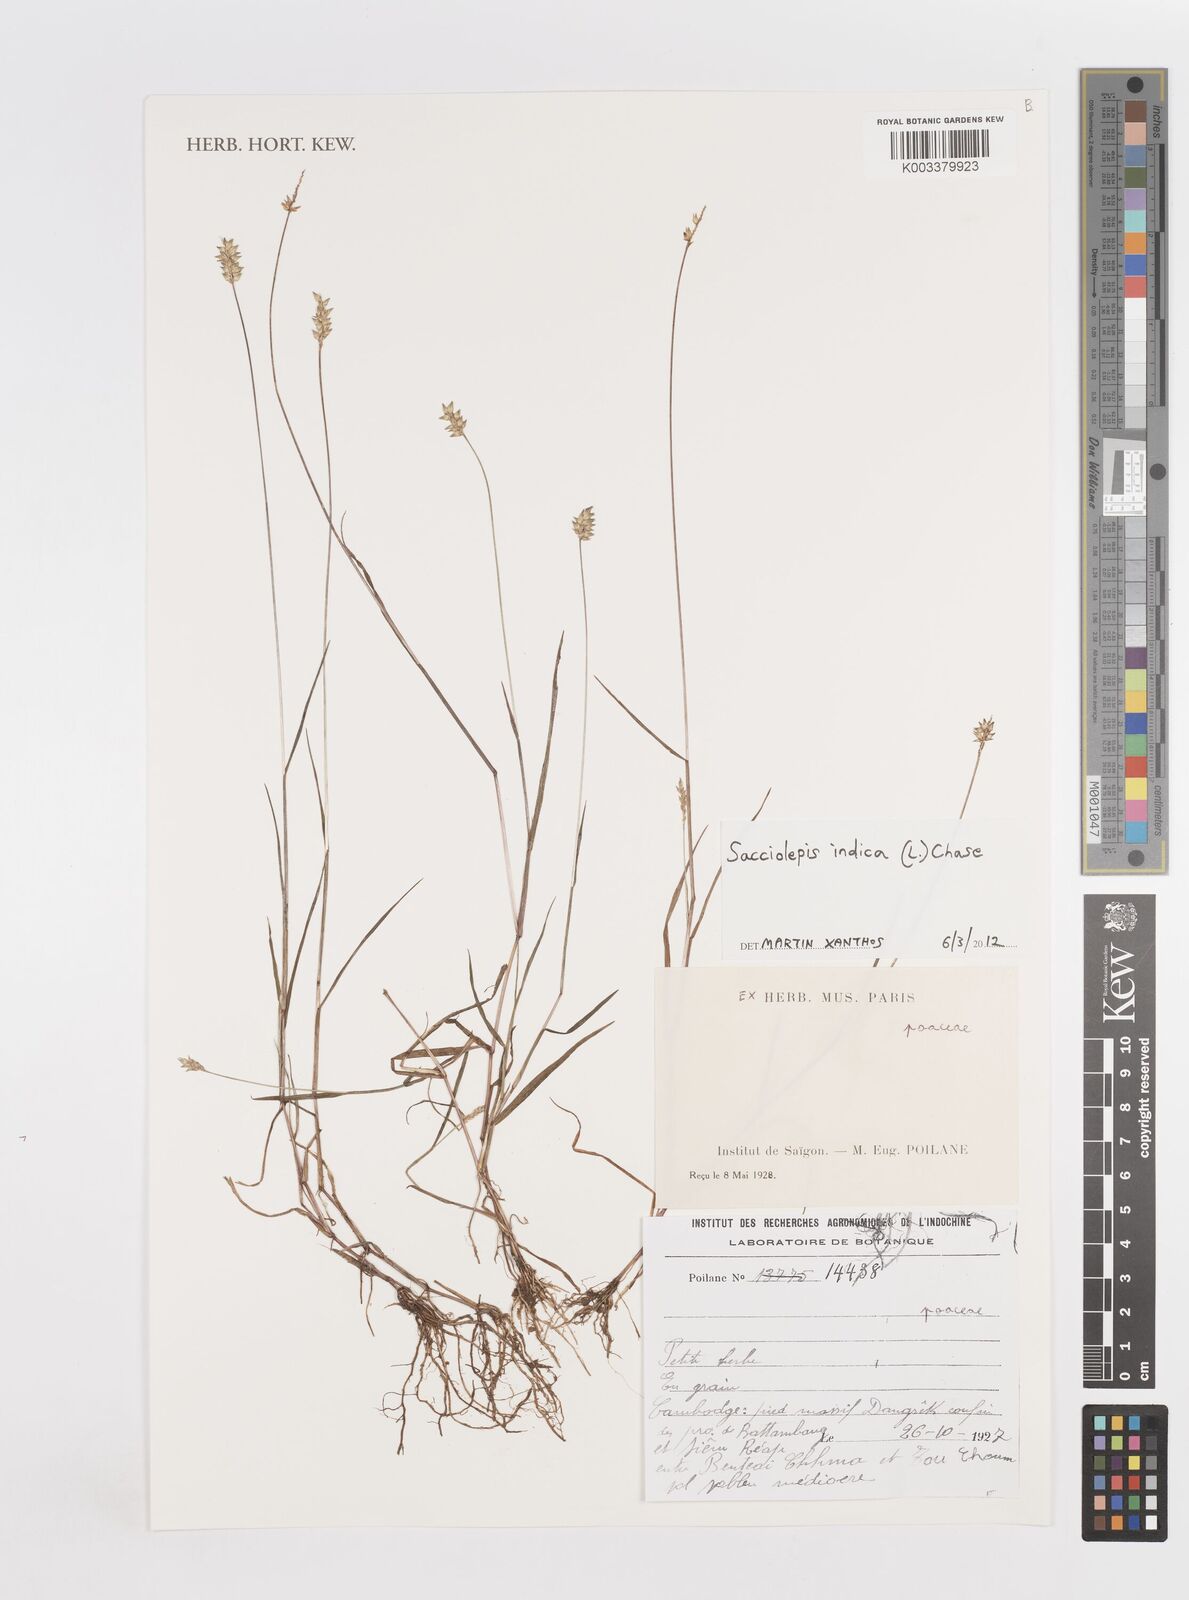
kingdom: Plantae
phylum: Tracheophyta
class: Liliopsida
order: Poales
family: Poaceae
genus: Sacciolepis
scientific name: Sacciolepis indica
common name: Glenwoodgrass
